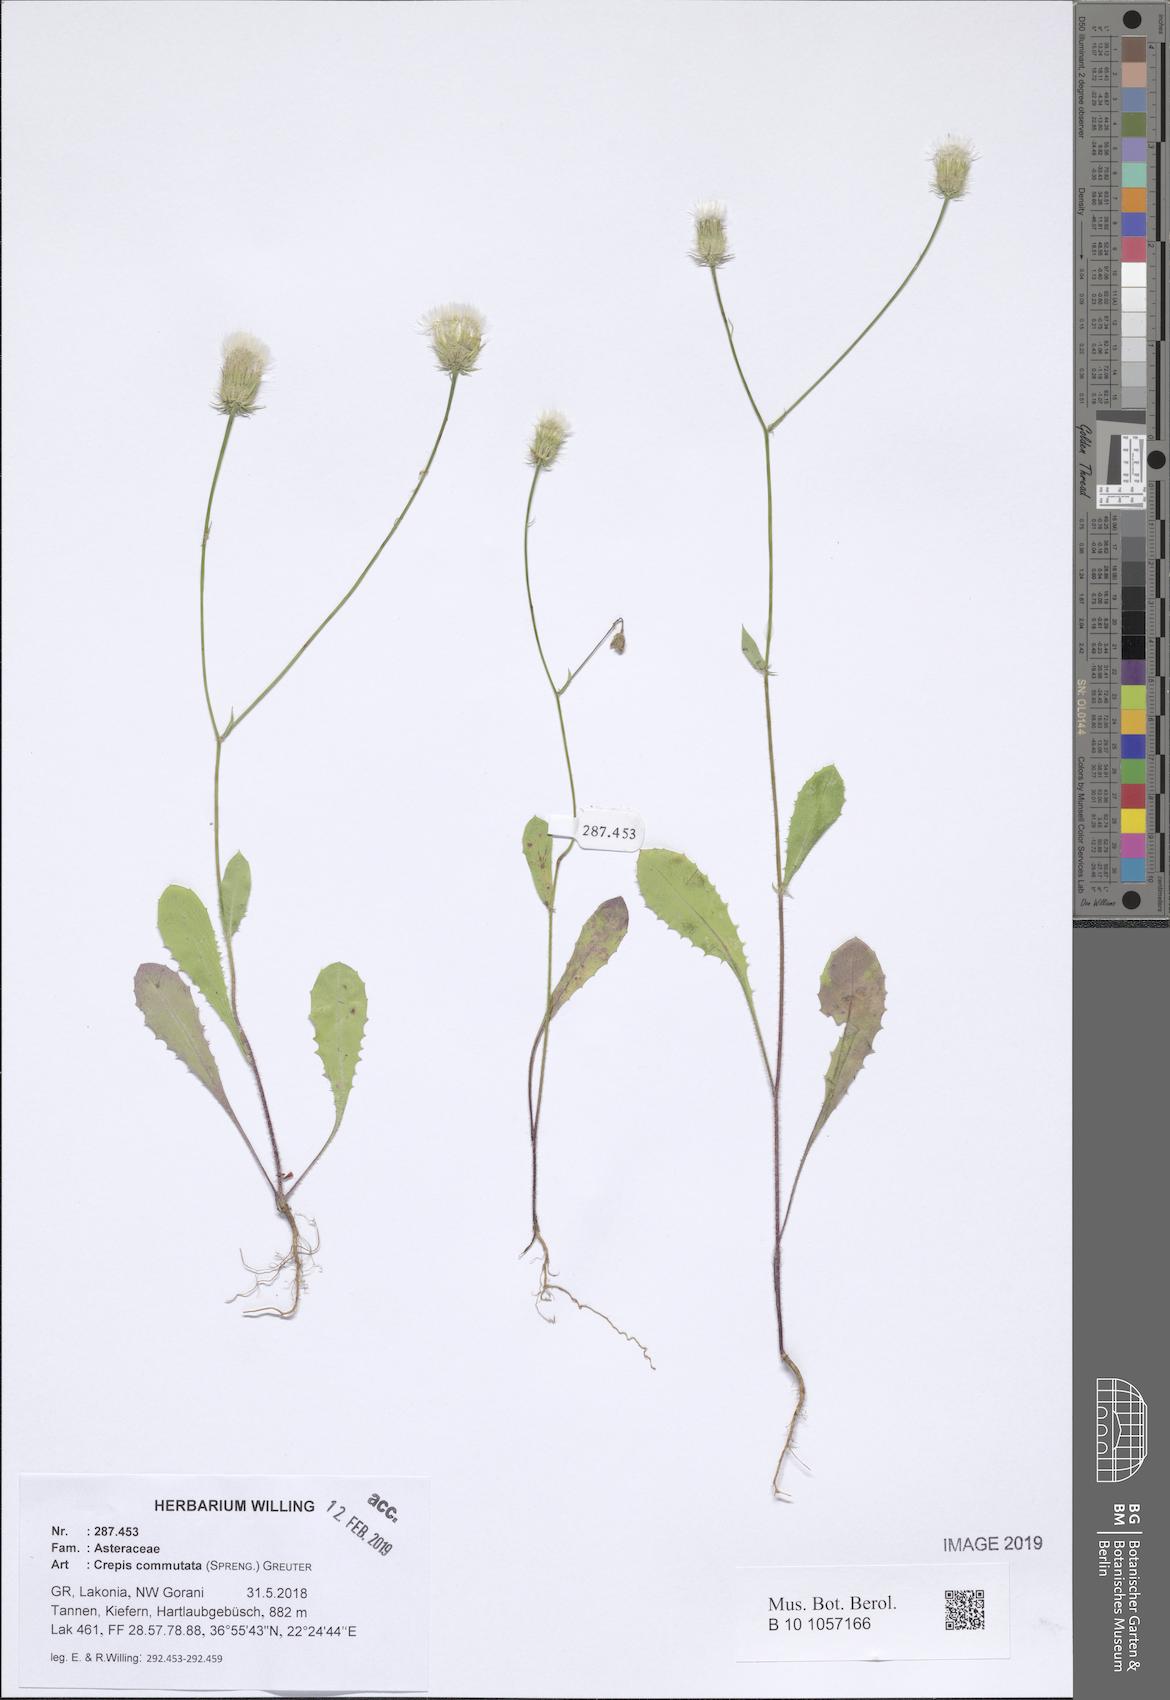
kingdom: Plantae
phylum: Tracheophyta
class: Magnoliopsida
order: Asterales
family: Asteraceae
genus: Crepis
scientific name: Crepis commutata
